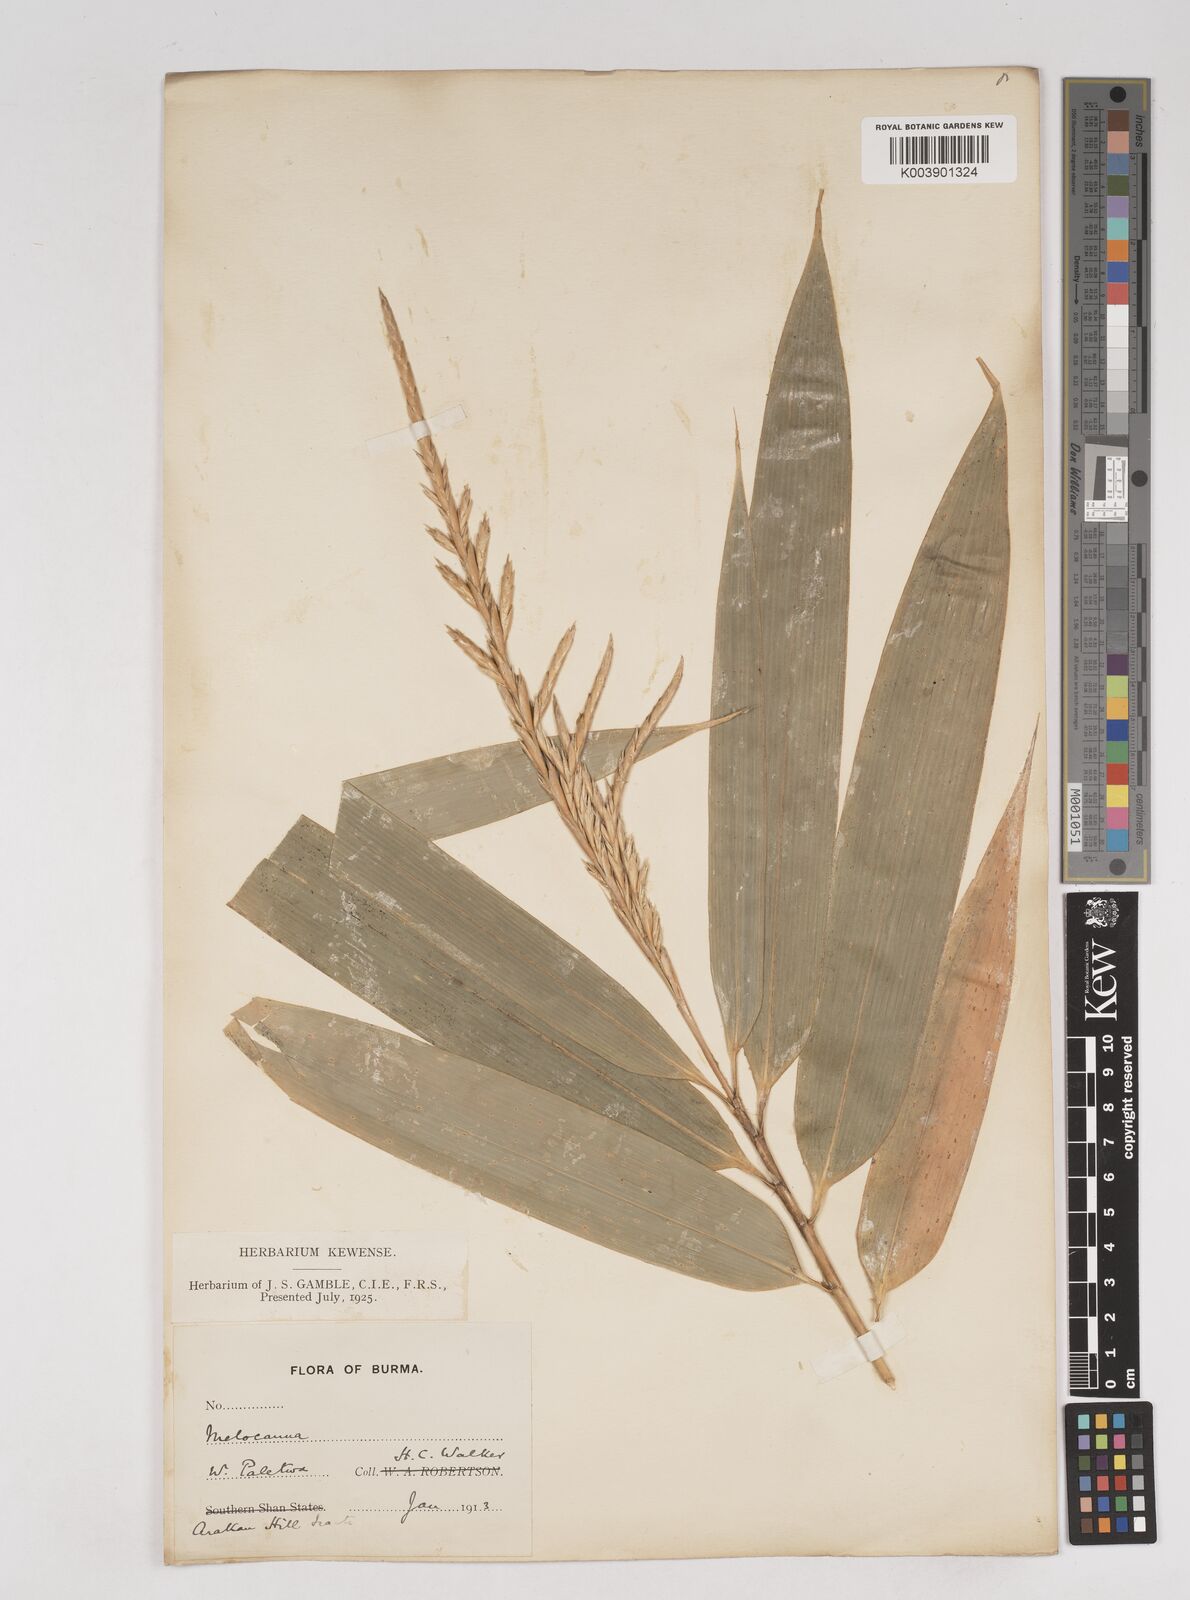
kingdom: Plantae
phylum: Tracheophyta
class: Liliopsida
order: Poales
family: Poaceae
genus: Melocanna
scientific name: Melocanna
